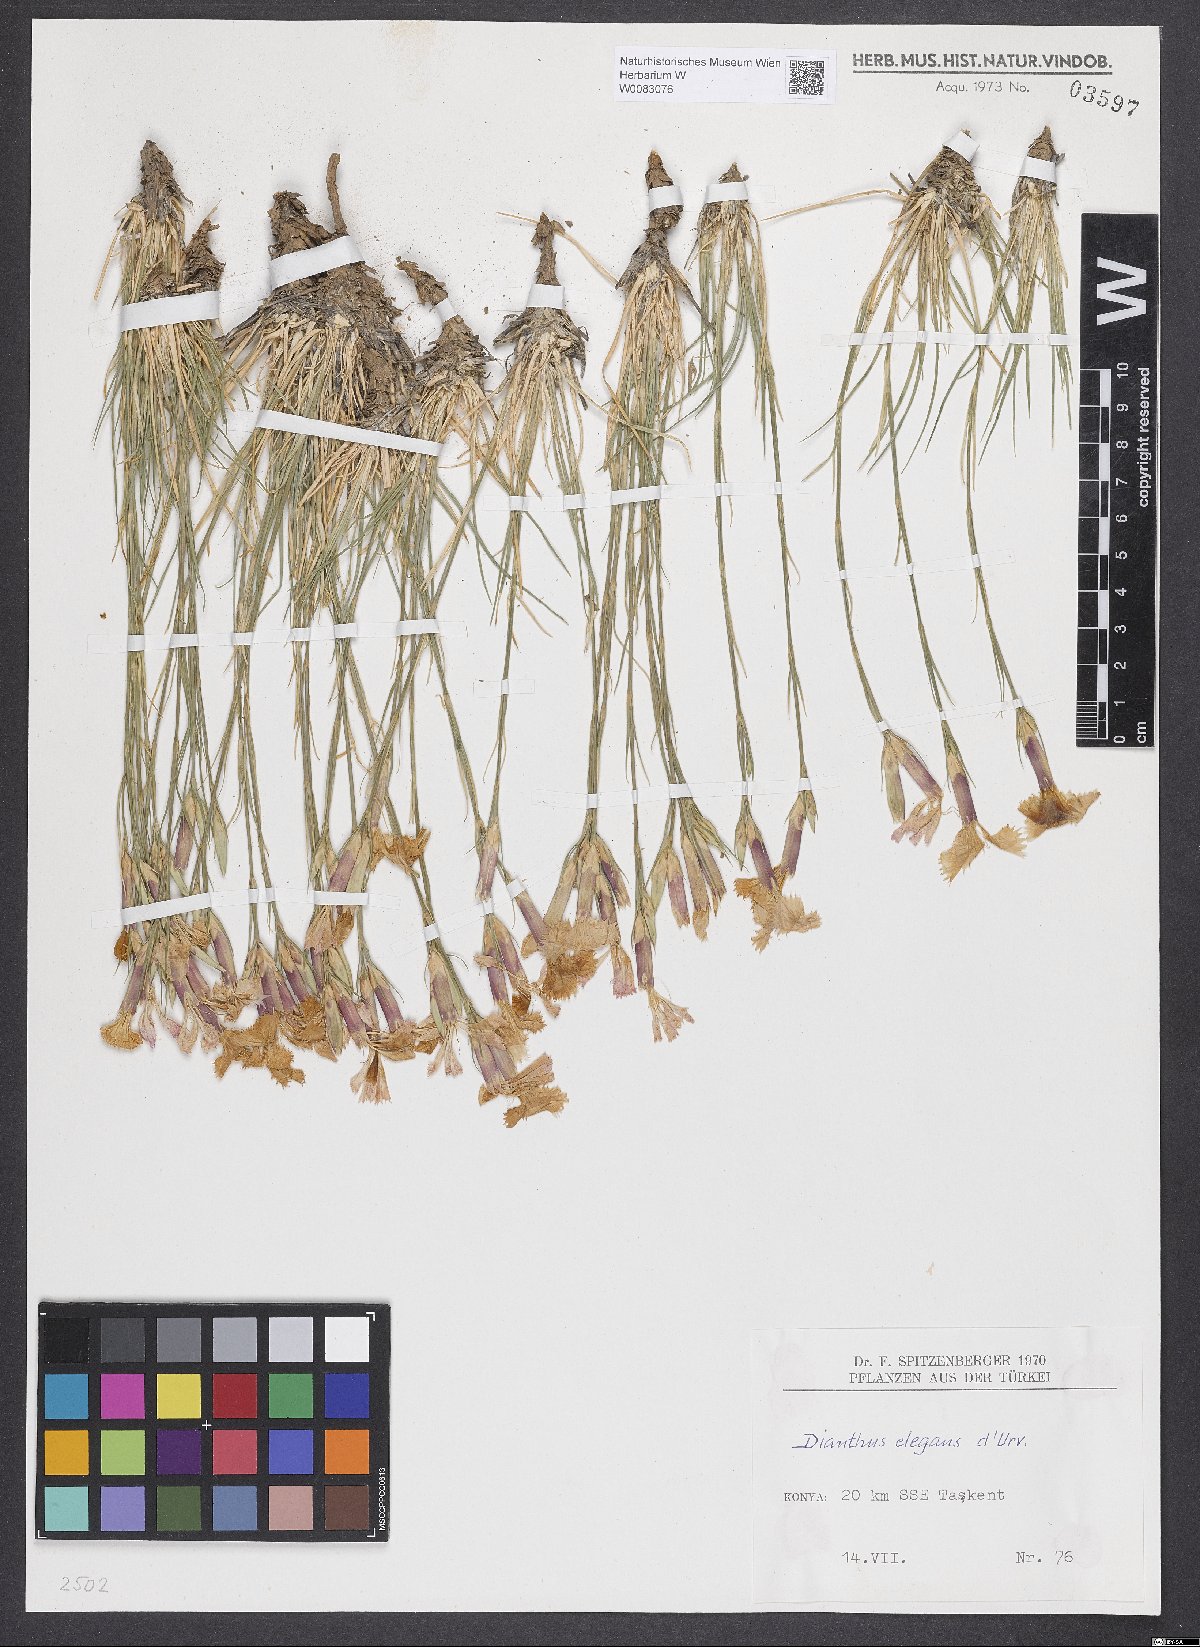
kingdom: Plantae
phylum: Tracheophyta
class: Magnoliopsida
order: Caryophyllales
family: Caryophyllaceae
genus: Dianthus
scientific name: Dianthus elegans
